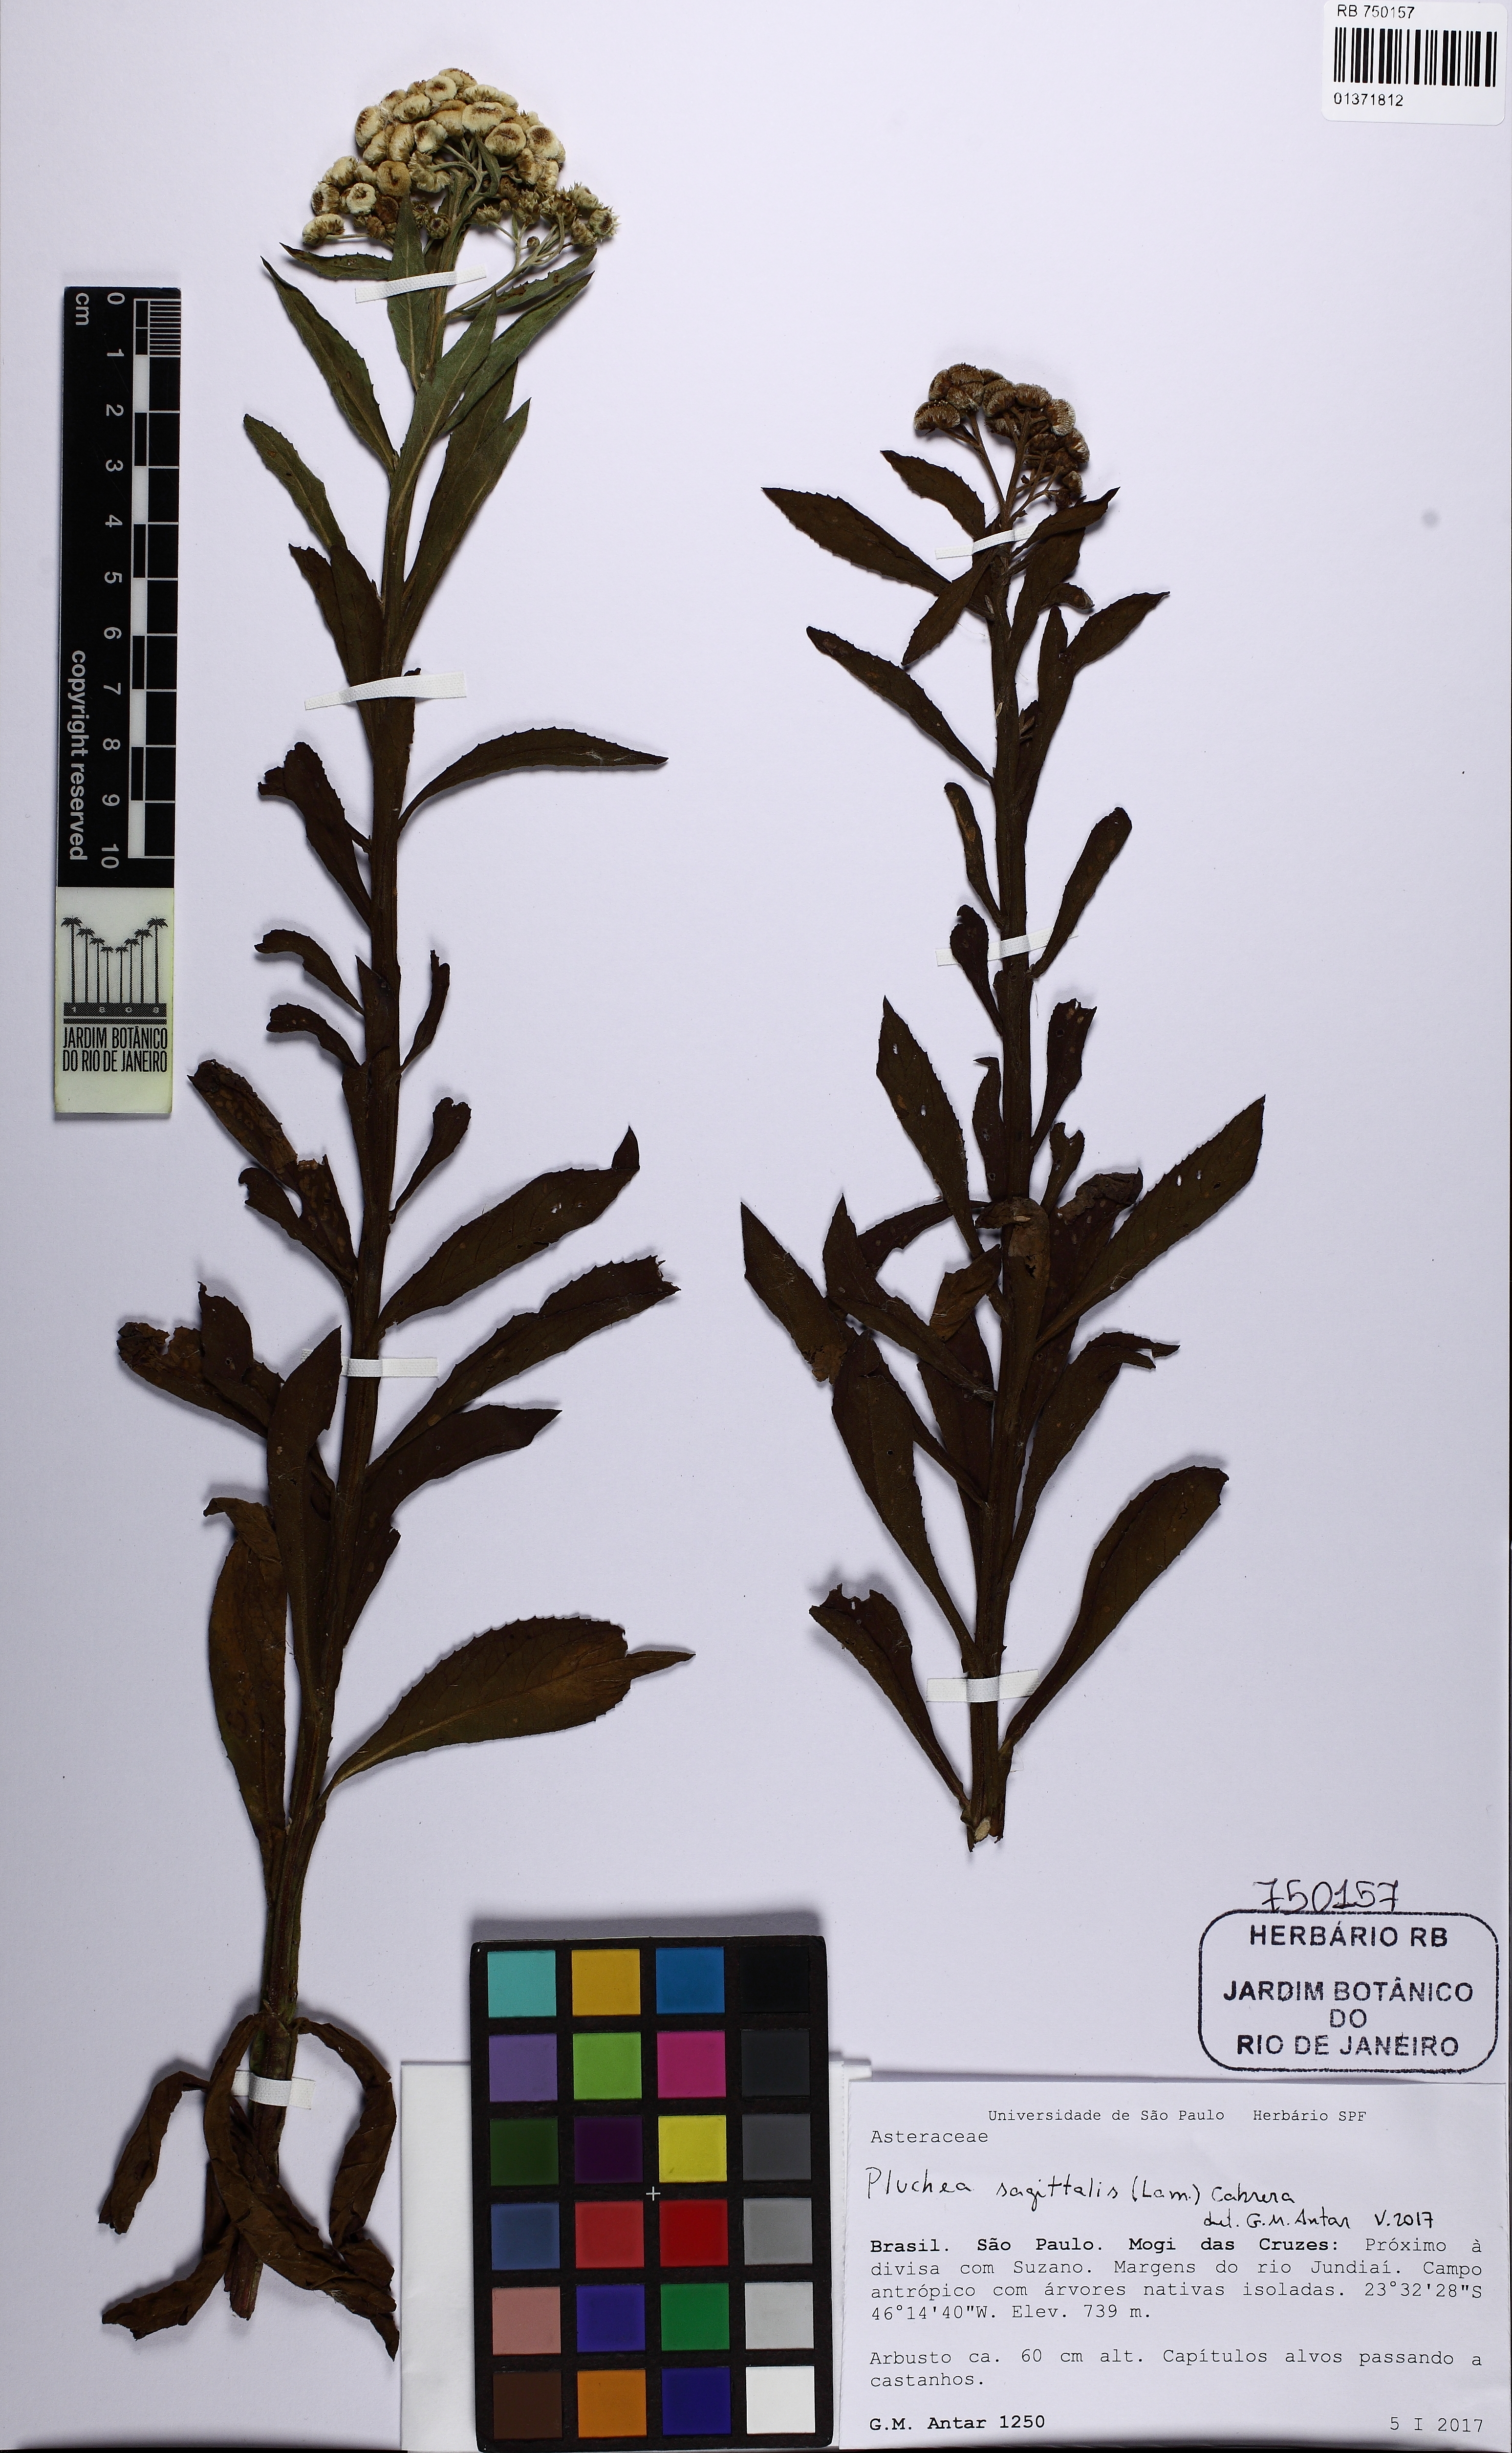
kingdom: Plantae
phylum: Tracheophyta
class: Magnoliopsida
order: Asterales
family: Asteraceae
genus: Pluchea
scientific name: Pluchea sagittalis
